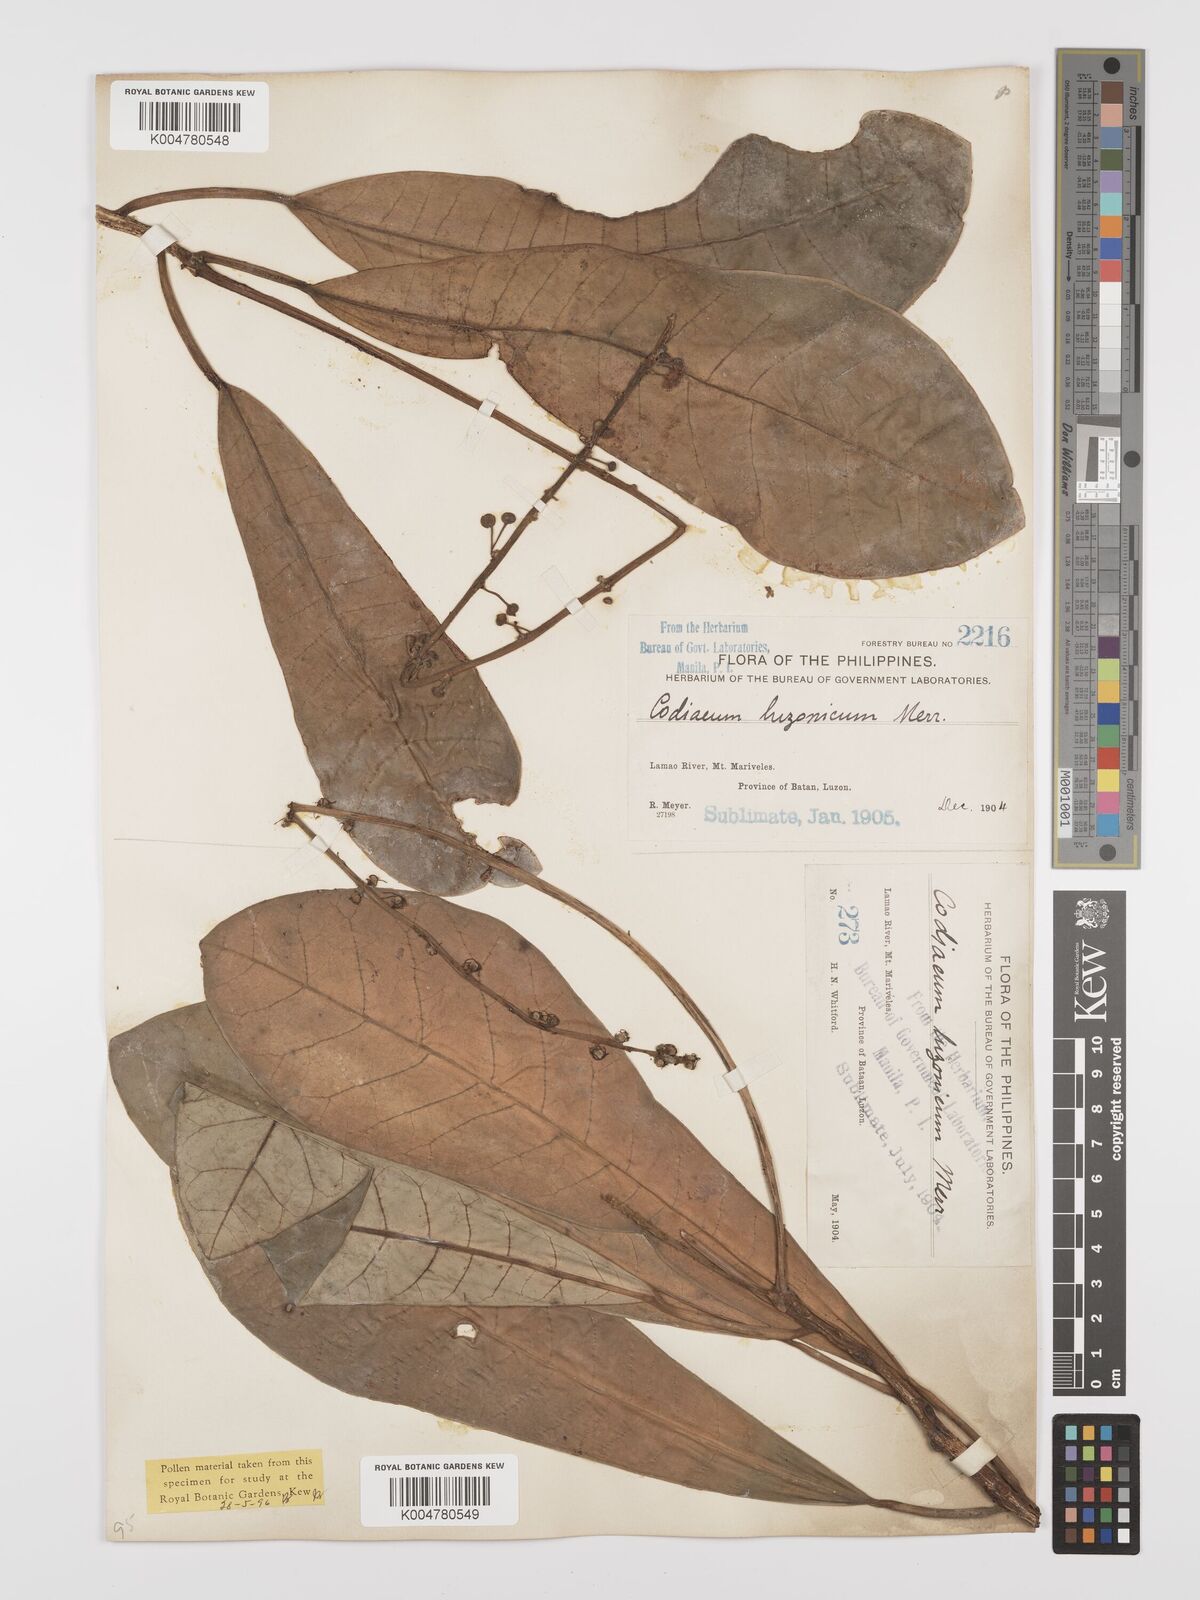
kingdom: Plantae
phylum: Tracheophyta
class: Magnoliopsida
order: Malpighiales
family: Euphorbiaceae
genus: Codiaeum
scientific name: Codiaeum luzonicum
